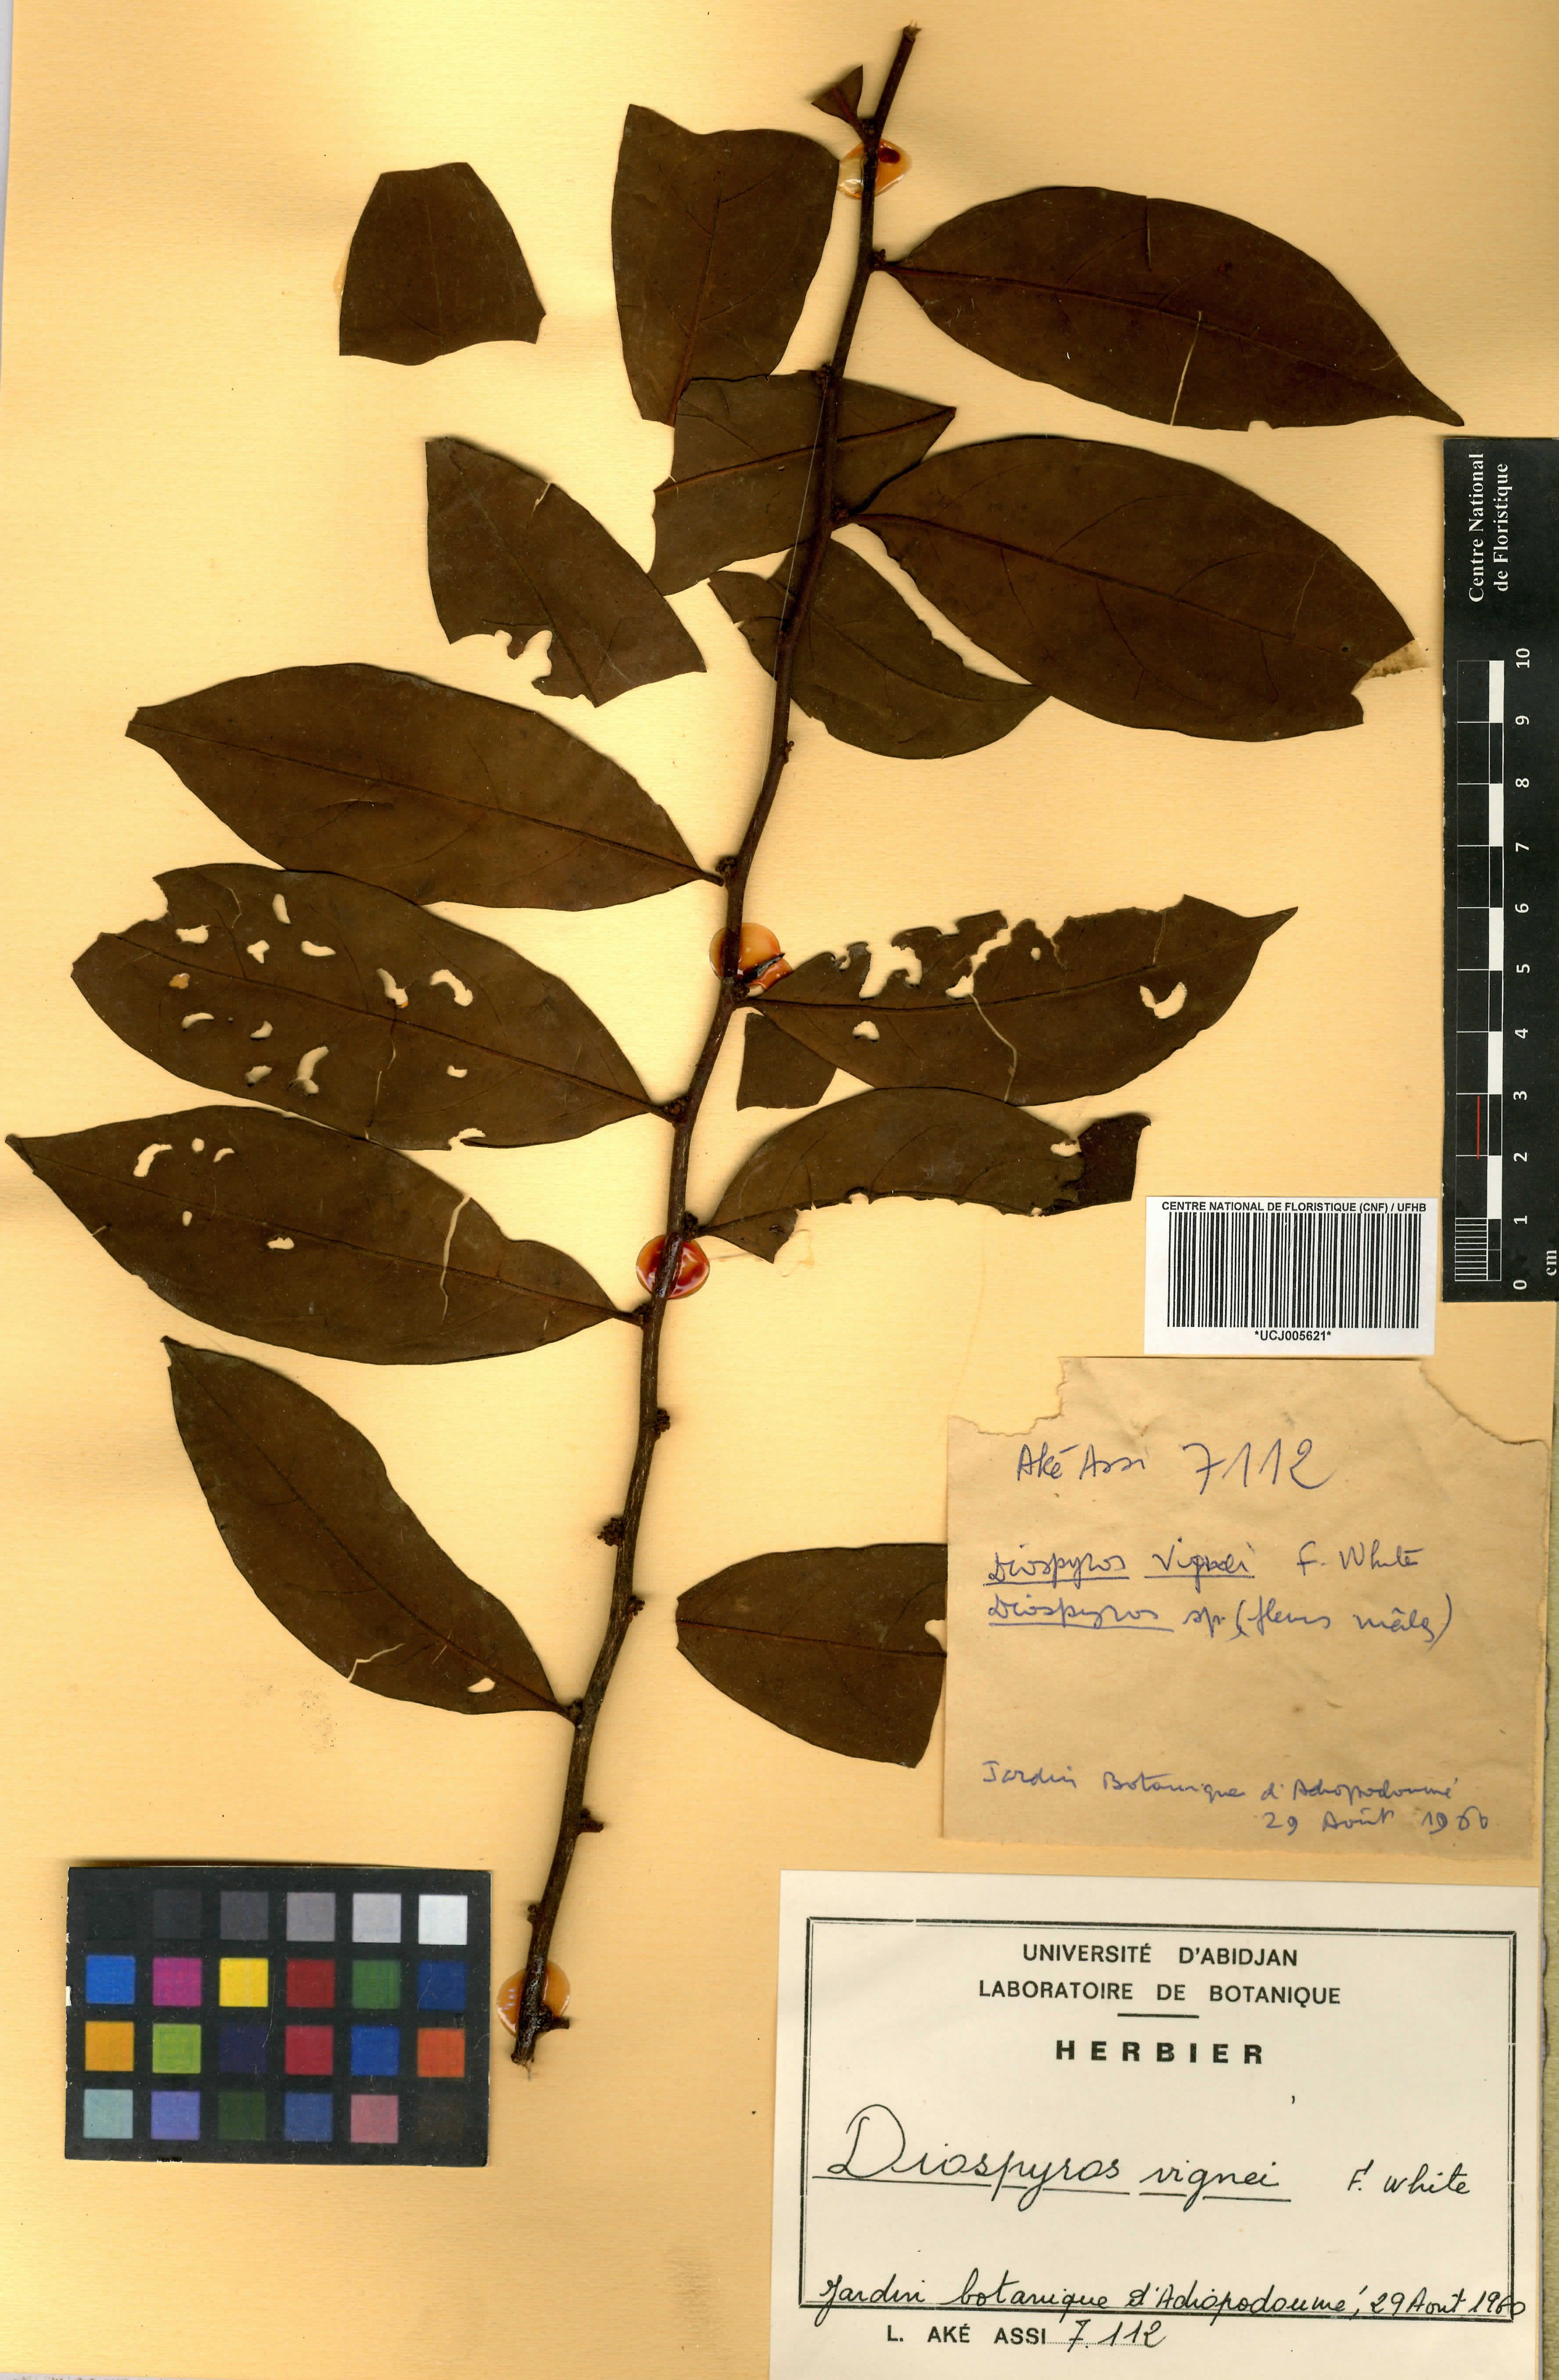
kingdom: Plantae
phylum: Tracheophyta
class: Magnoliopsida
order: Ericales
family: Ebenaceae
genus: Diospyros
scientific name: Diospyros vignei
